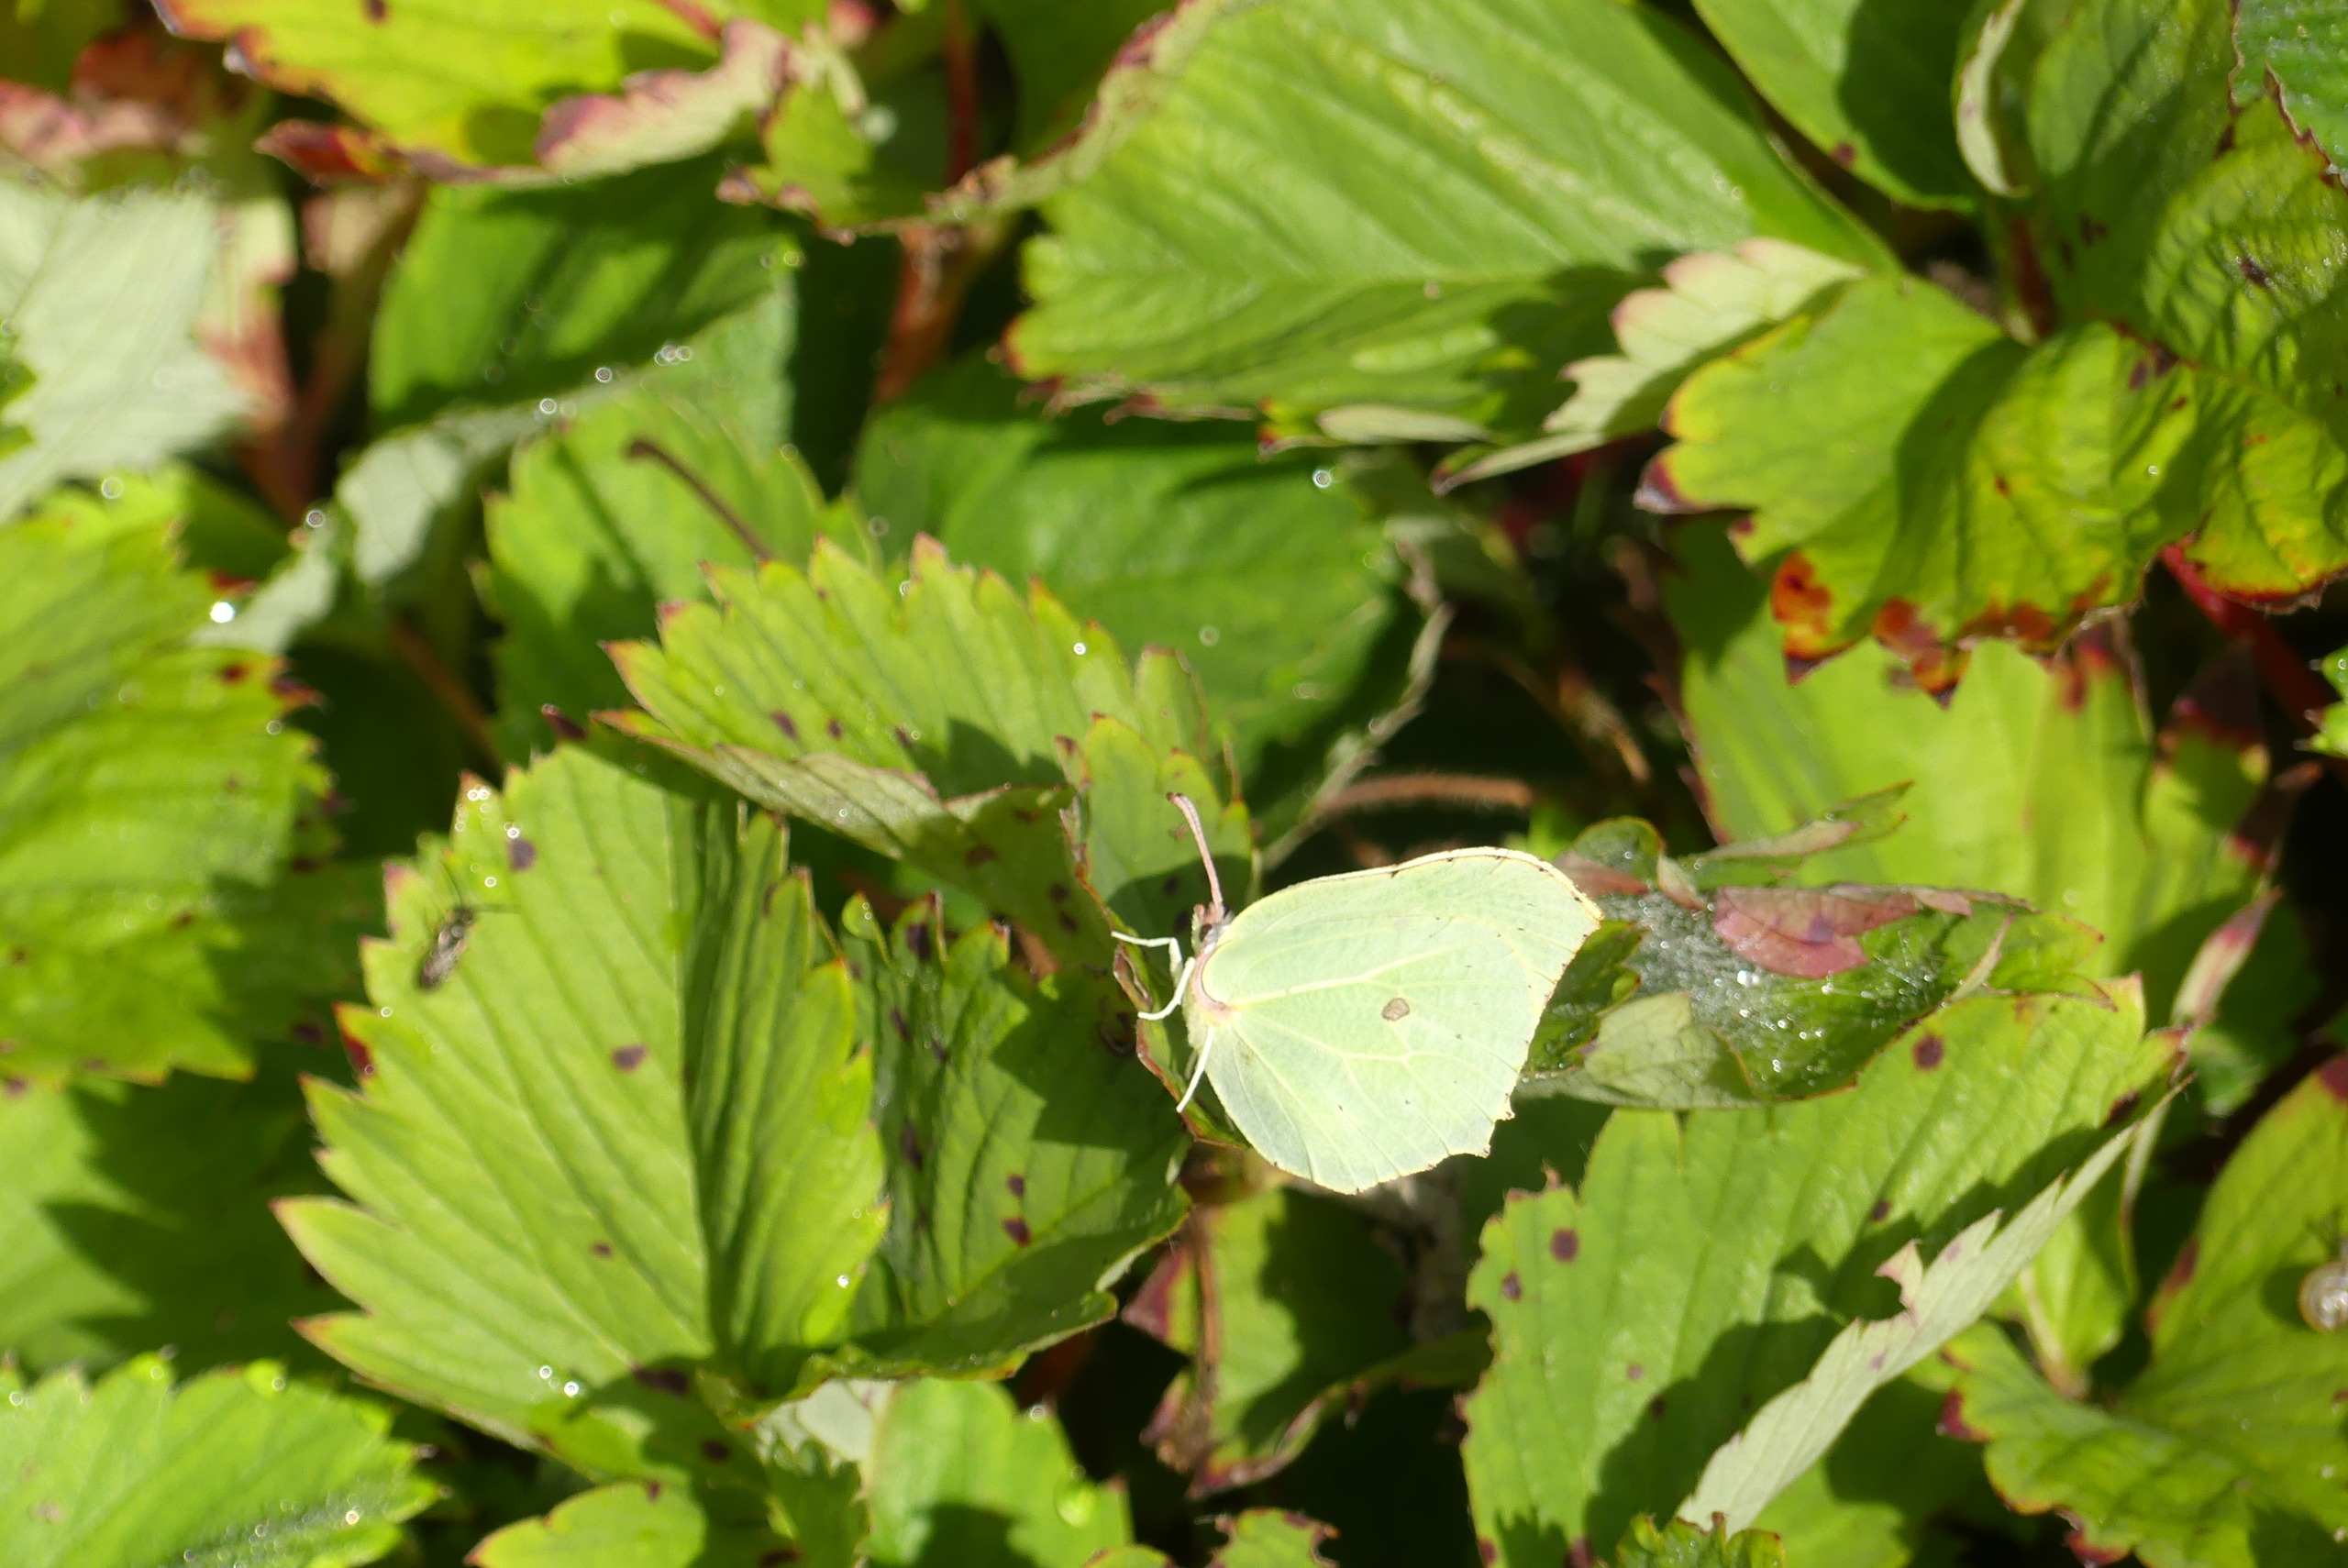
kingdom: Animalia
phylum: Arthropoda
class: Insecta
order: Lepidoptera
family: Pieridae
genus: Gonepteryx
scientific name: Gonepteryx rhamni
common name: Citronsommerfugl
